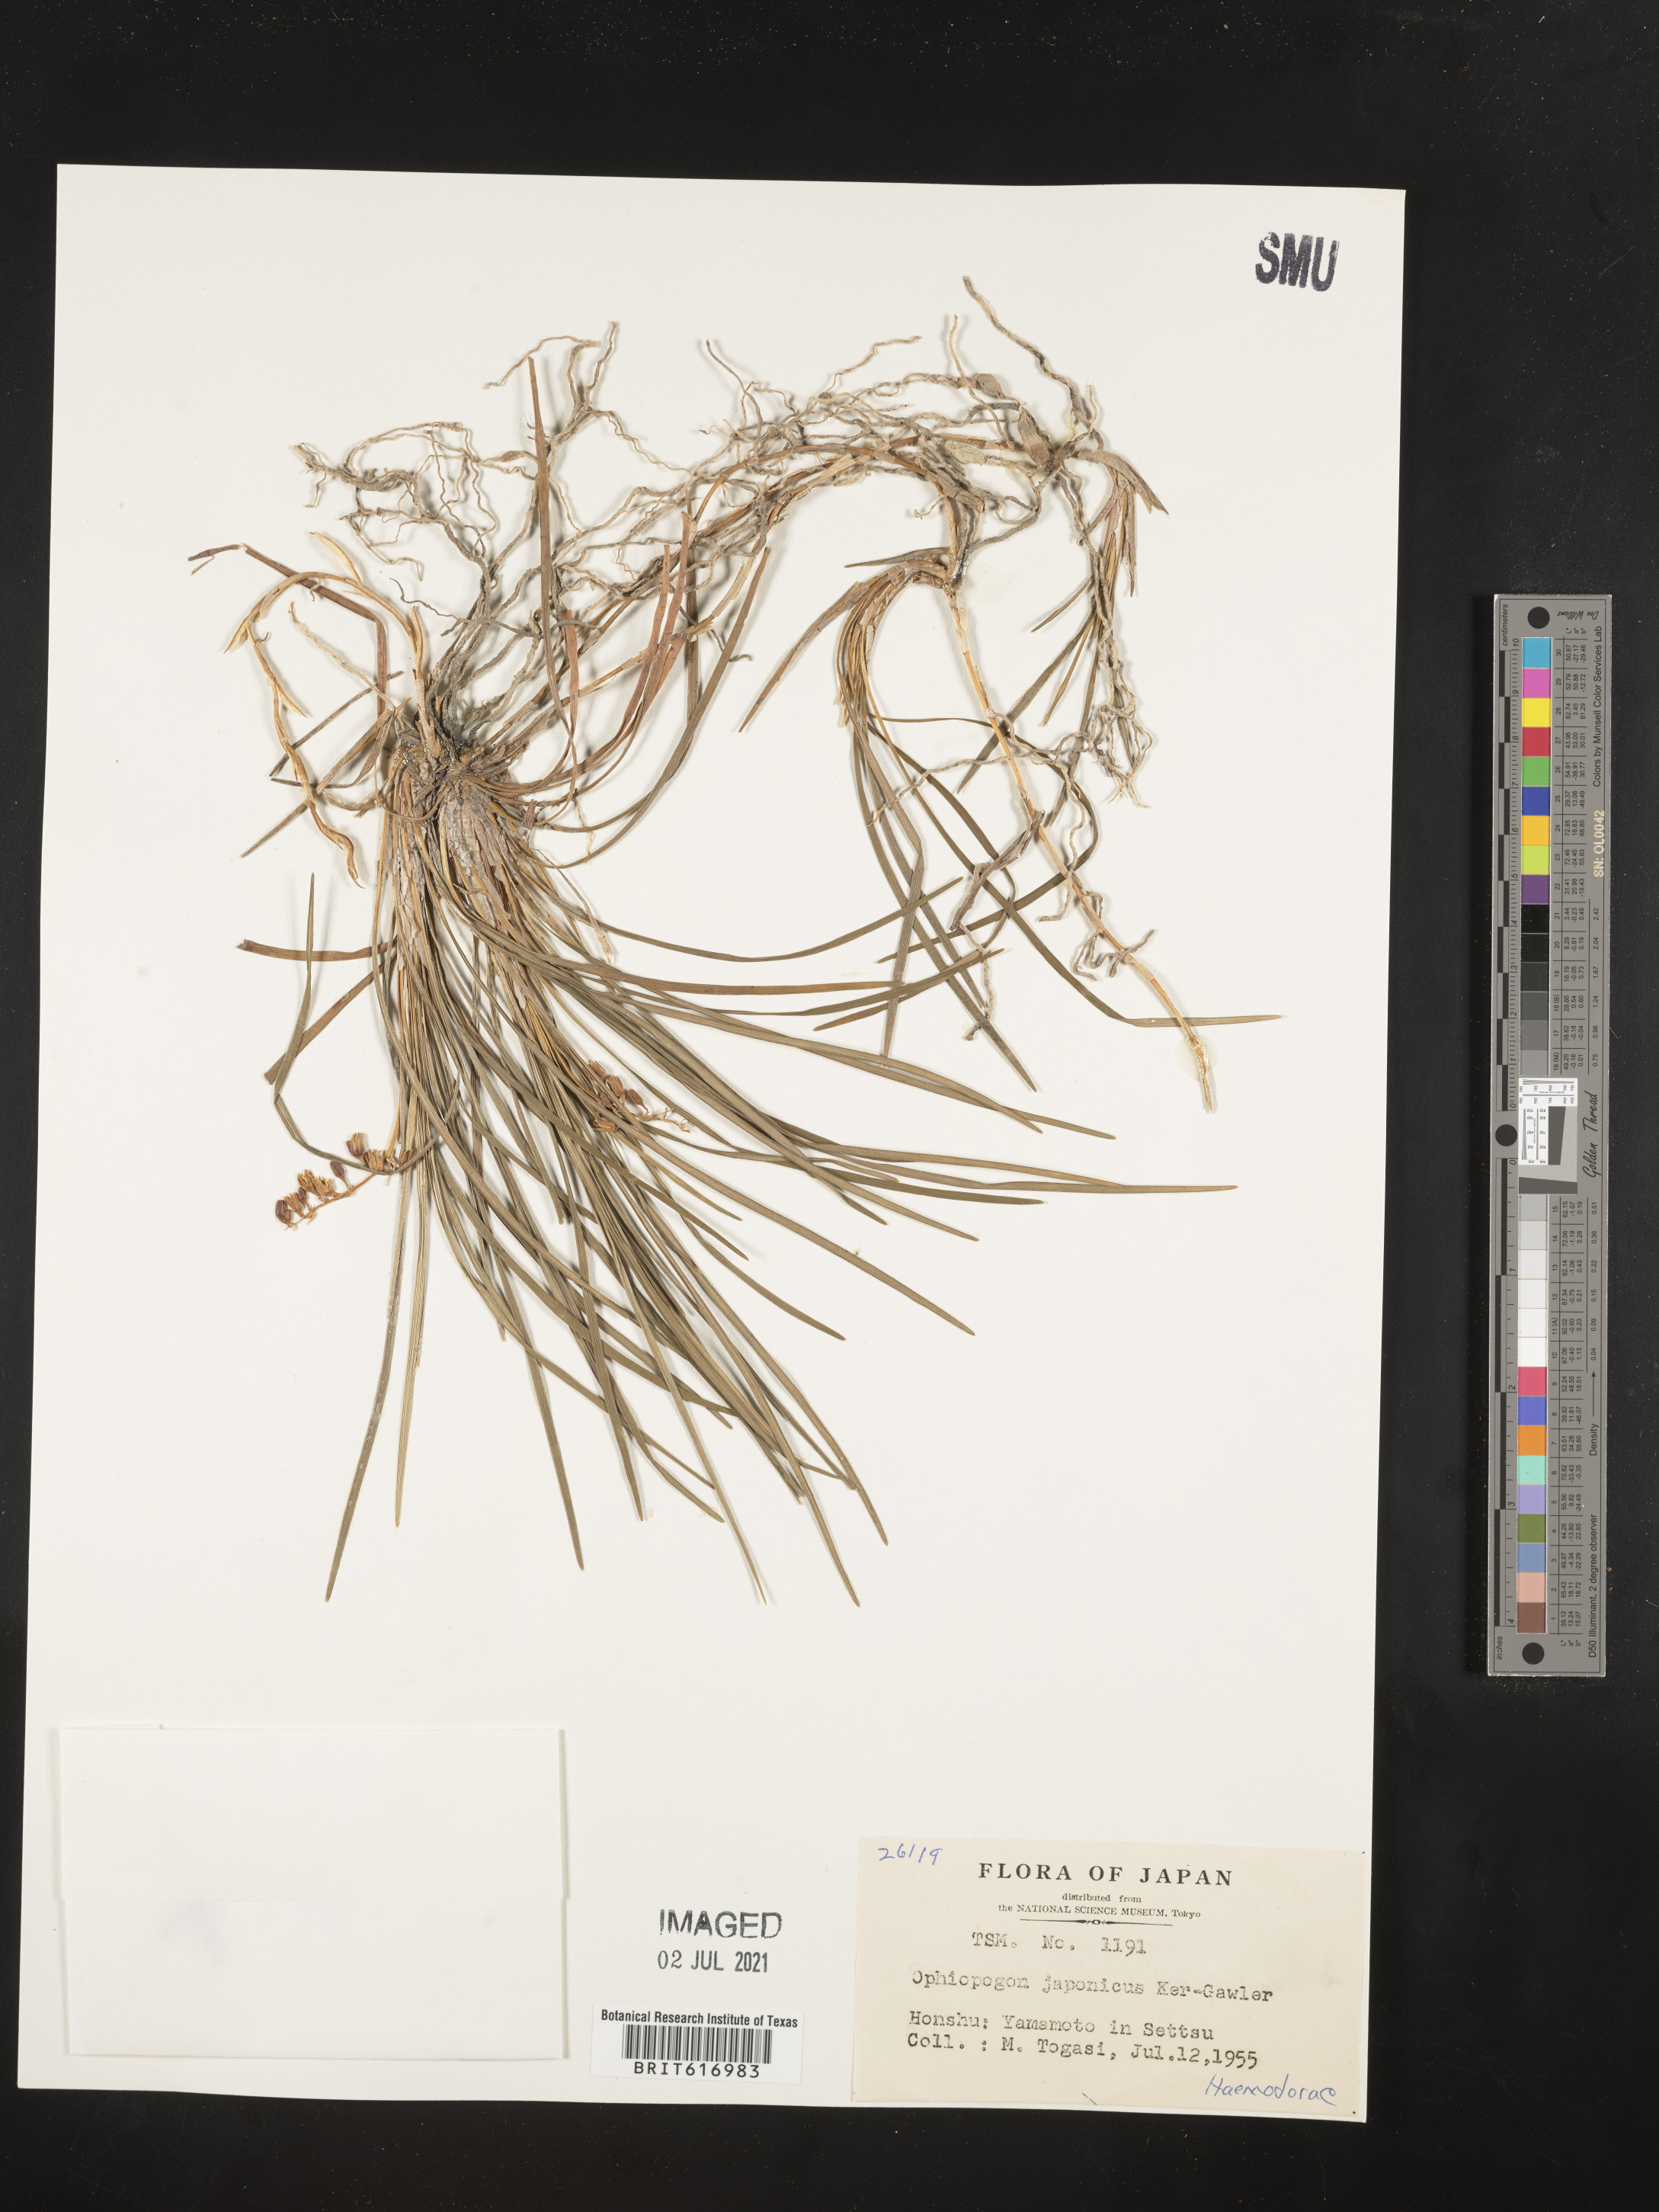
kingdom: Plantae
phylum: Tracheophyta
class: Liliopsida
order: Asparagales
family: Asparagaceae
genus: Ophiopogon
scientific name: Ophiopogon japonicus
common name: Dwarf lilyturf
